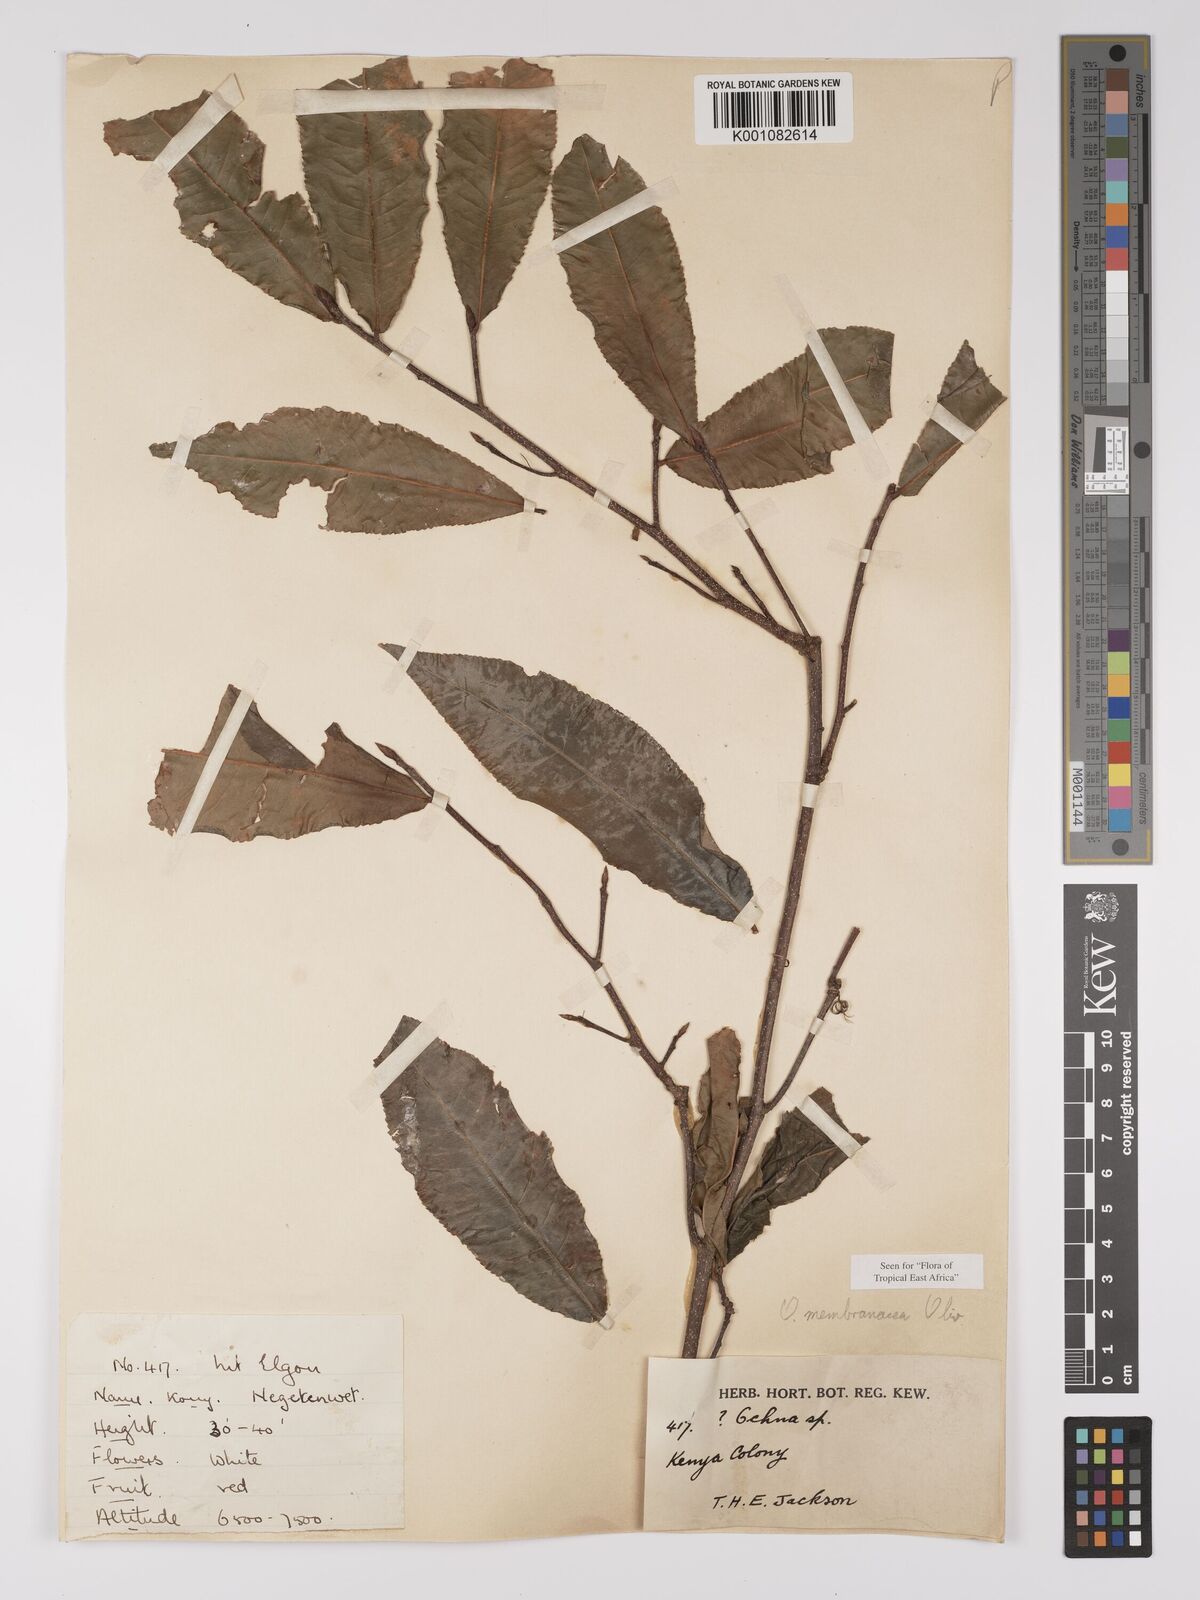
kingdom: Plantae
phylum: Tracheophyta
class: Magnoliopsida
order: Malpighiales
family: Ochnaceae
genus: Ochna
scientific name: Ochna membranacea
